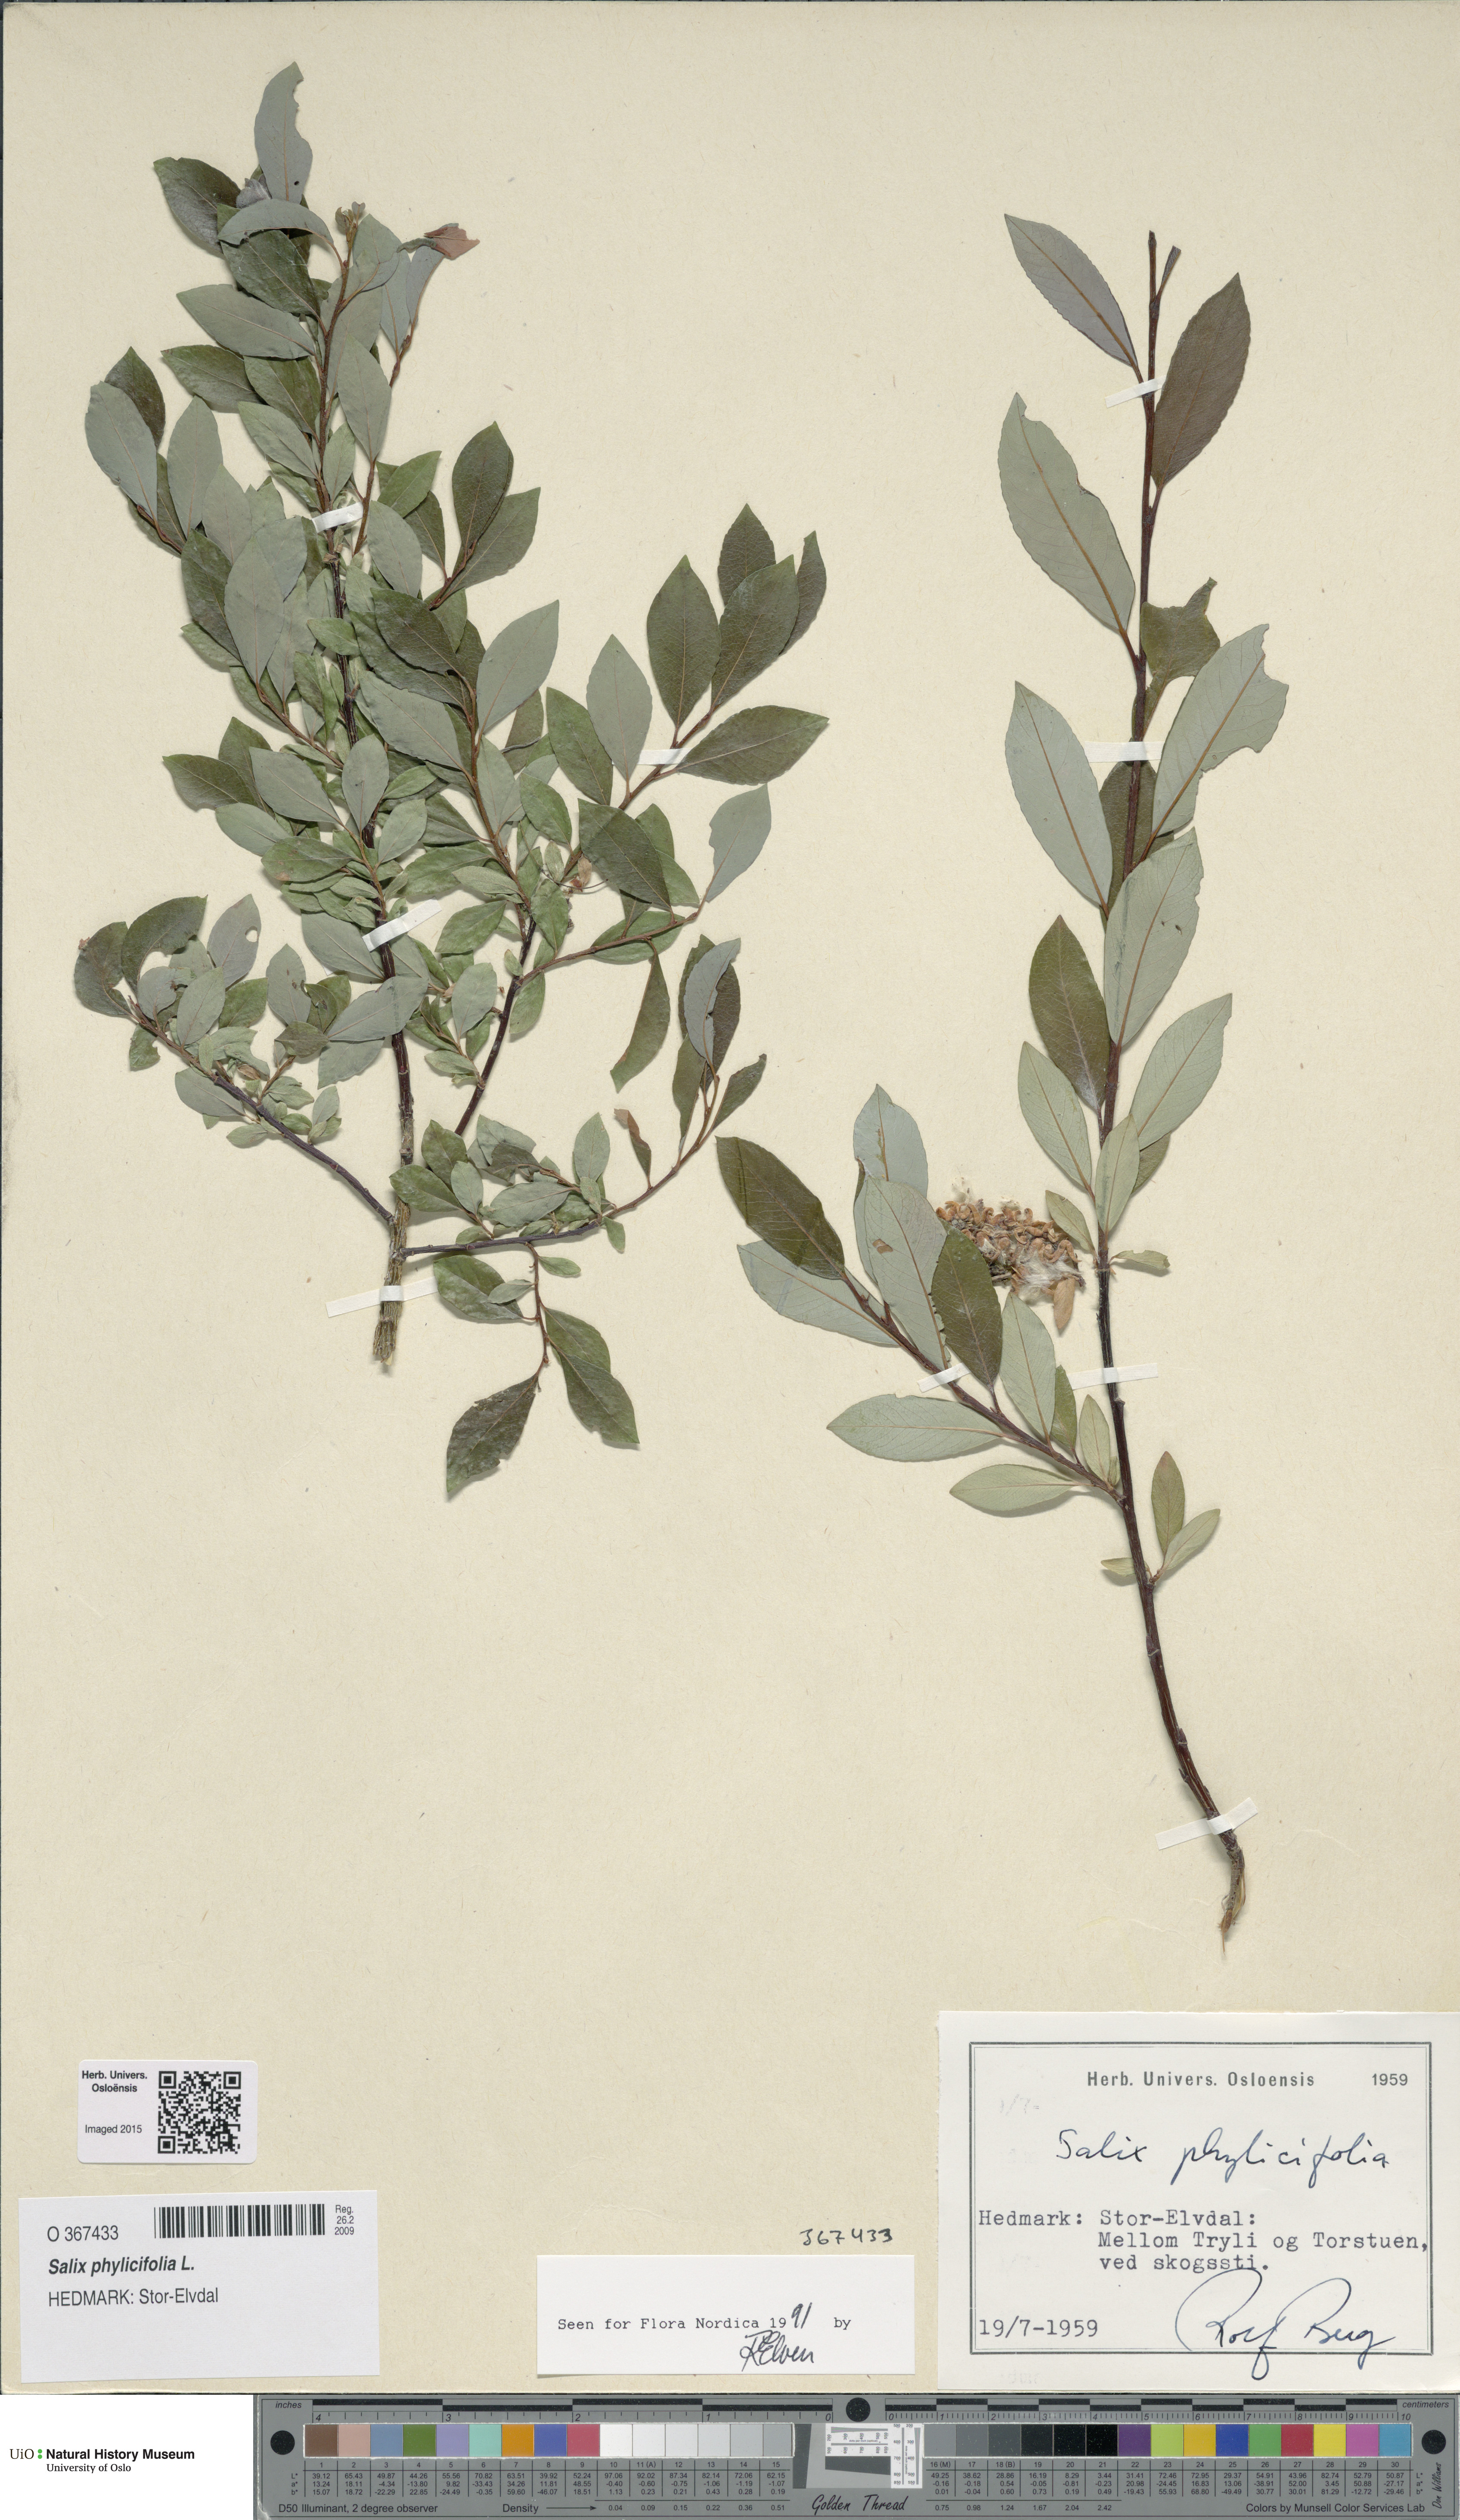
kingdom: Plantae
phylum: Tracheophyta
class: Magnoliopsida
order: Malpighiales
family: Salicaceae
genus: Salix
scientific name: Salix phylicifolia
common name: Tea-leaved willow
